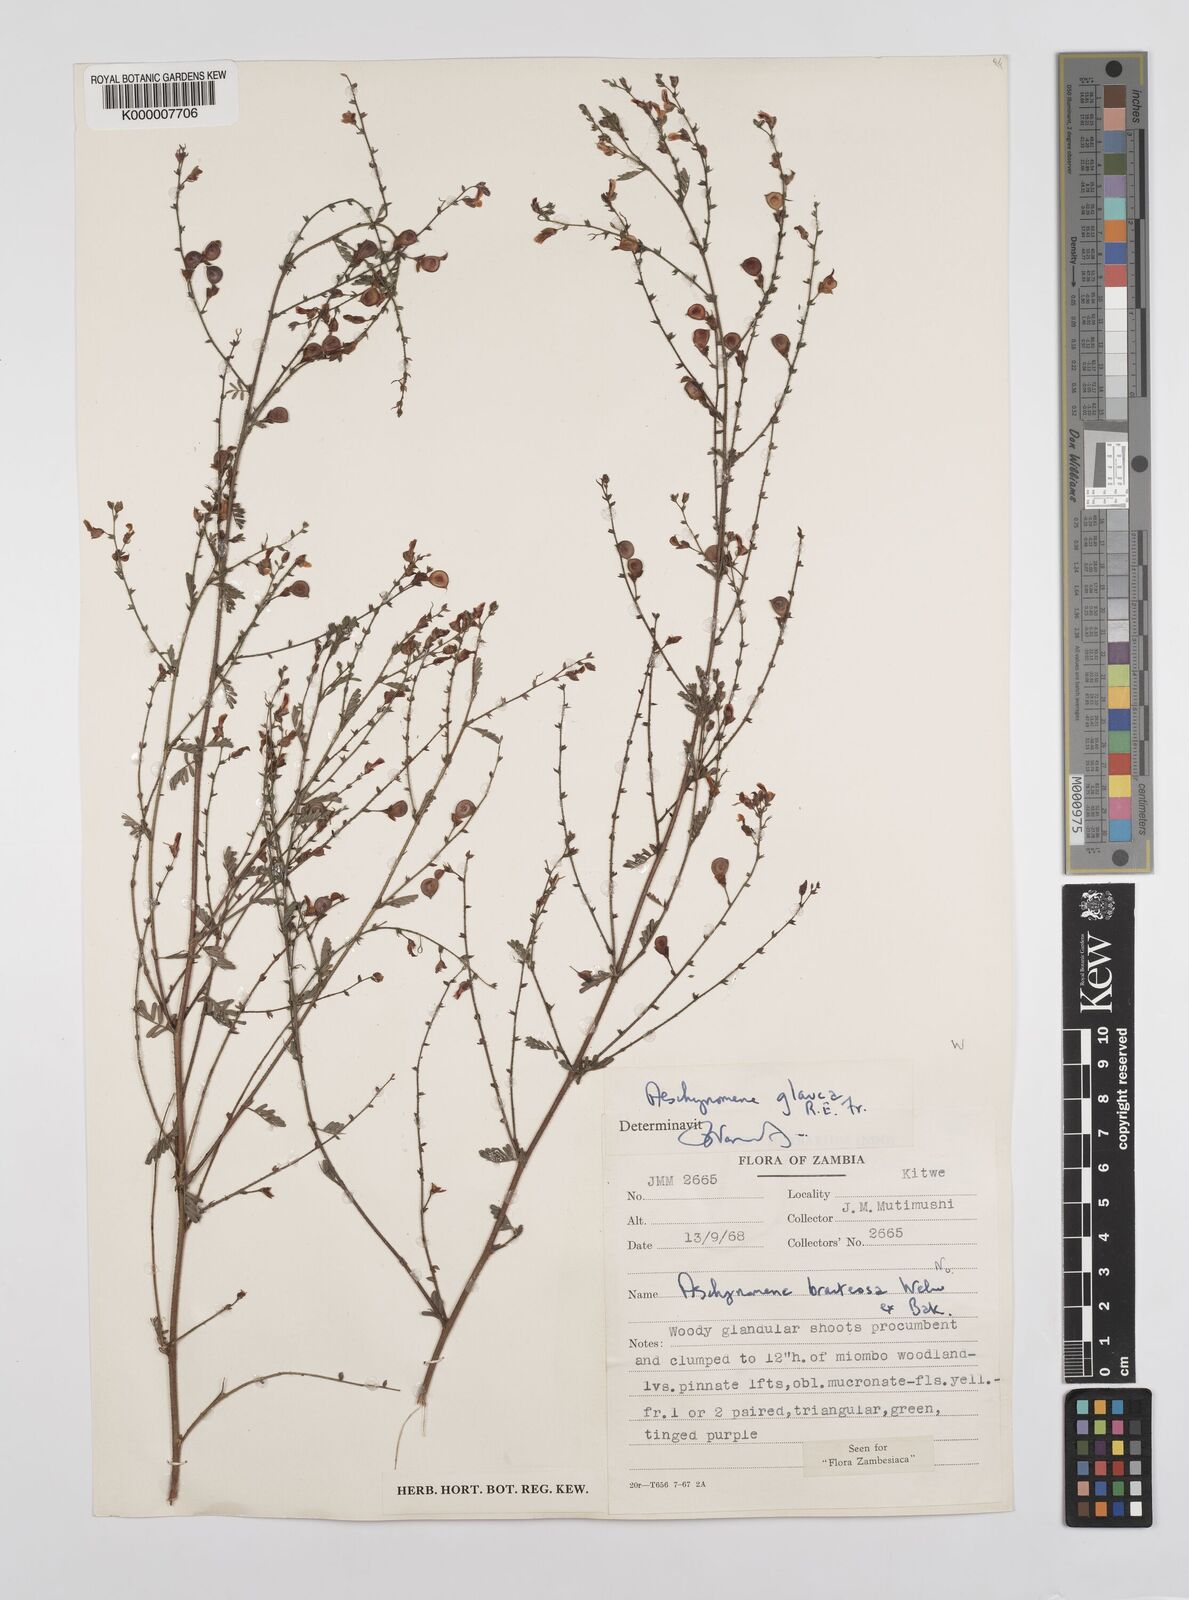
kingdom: Plantae
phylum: Tracheophyta
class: Magnoliopsida
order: Fabales
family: Fabaceae
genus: Aeschynomene
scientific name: Aeschynomene glauca
